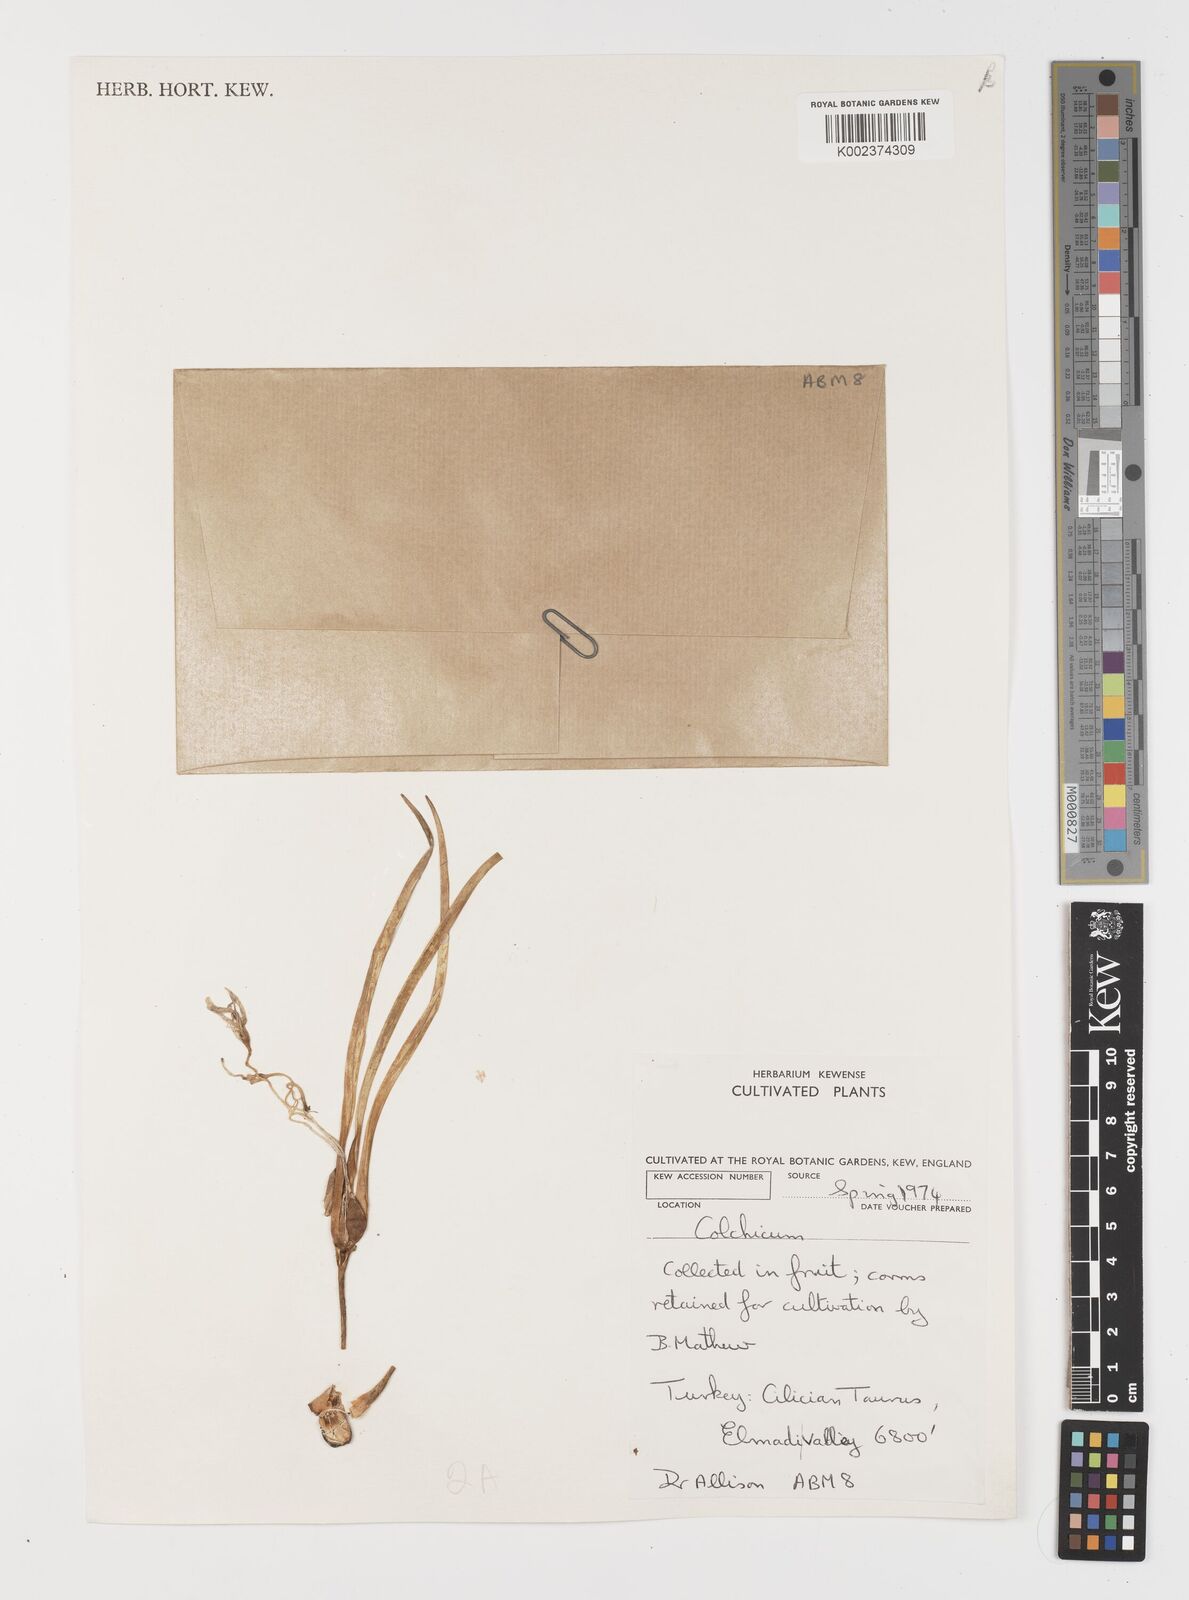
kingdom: Plantae
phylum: Tracheophyta
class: Liliopsida
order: Liliales
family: Colchicaceae
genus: Colchicum
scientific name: Colchicum
